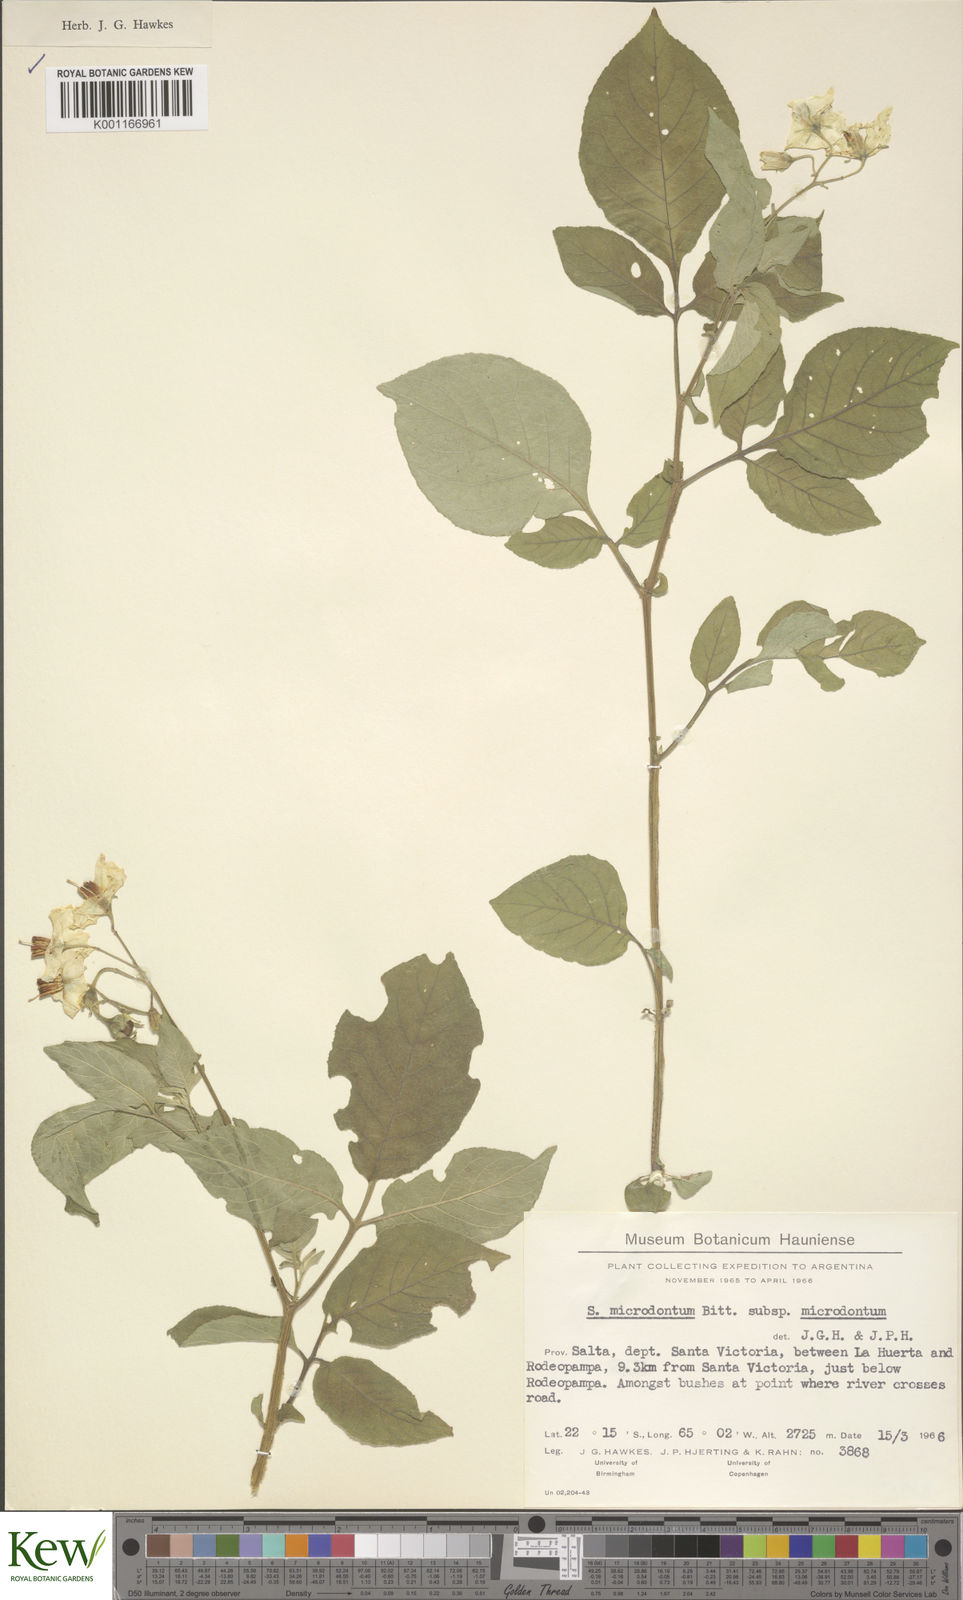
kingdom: Plantae
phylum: Tracheophyta
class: Magnoliopsida
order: Solanales
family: Solanaceae
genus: Solanum
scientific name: Solanum microdontum
